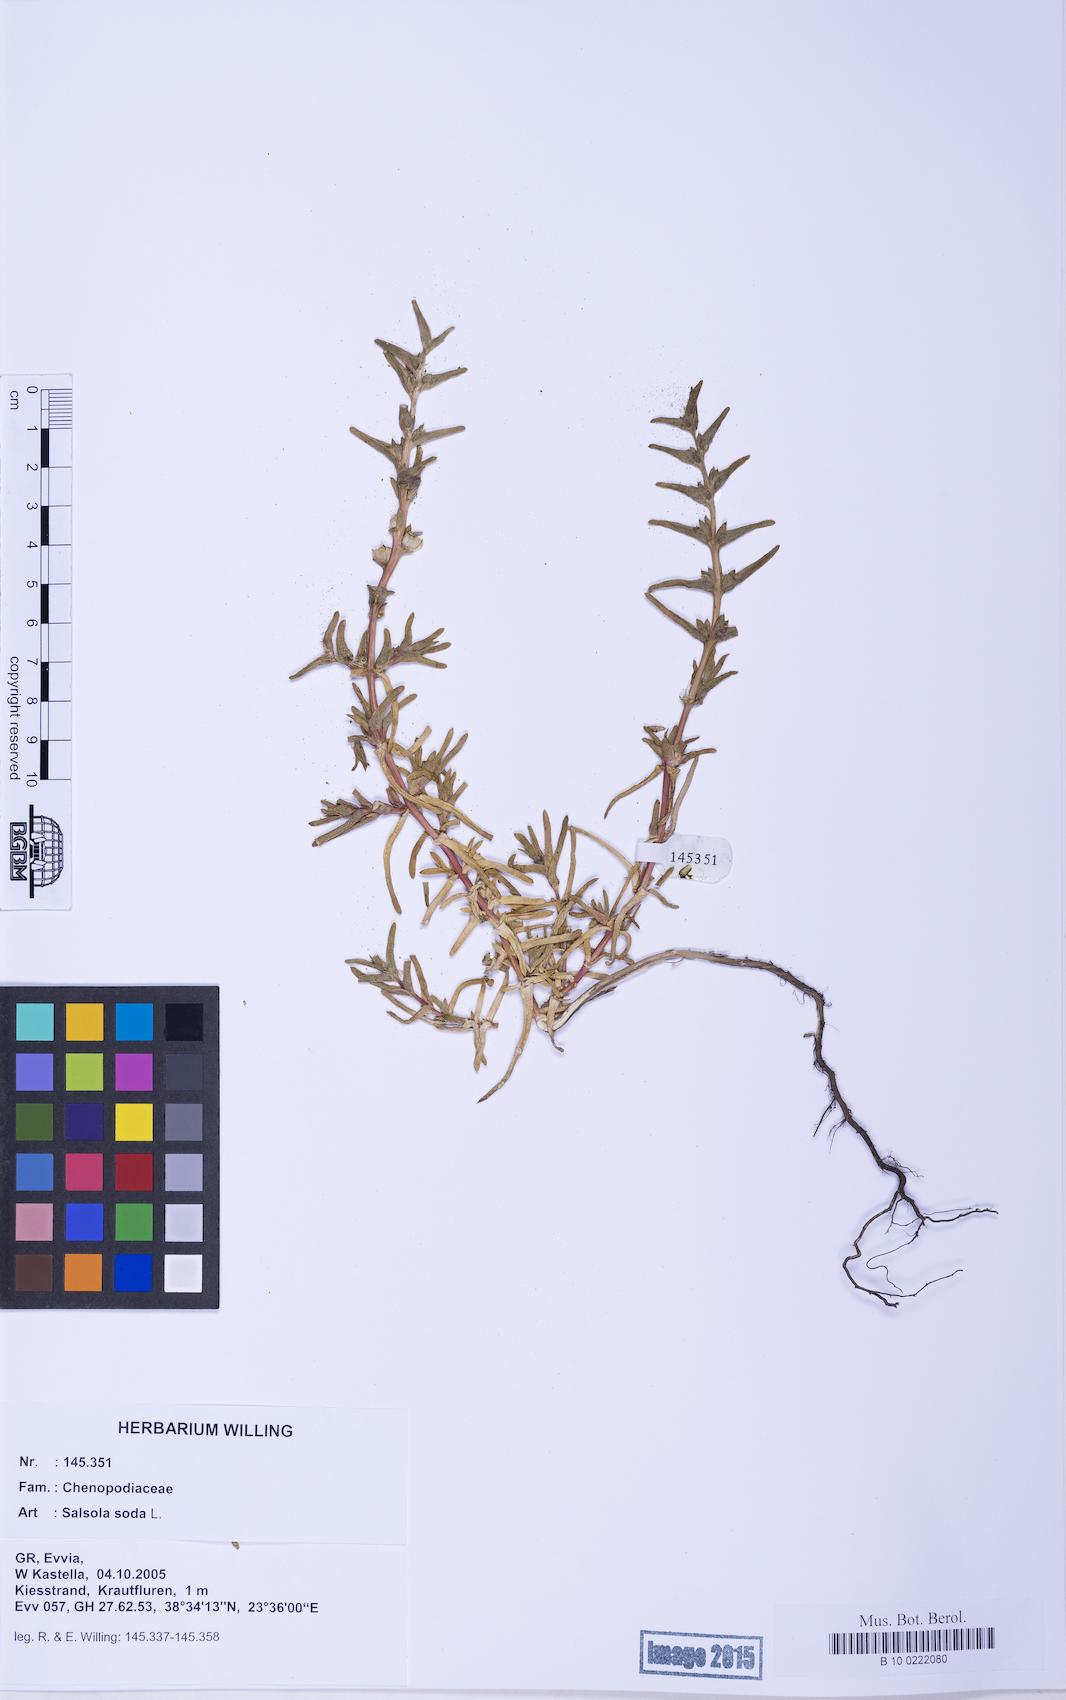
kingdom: Plantae
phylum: Tracheophyta
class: Magnoliopsida
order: Caryophyllales
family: Amaranthaceae
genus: Soda
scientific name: Soda inermis
